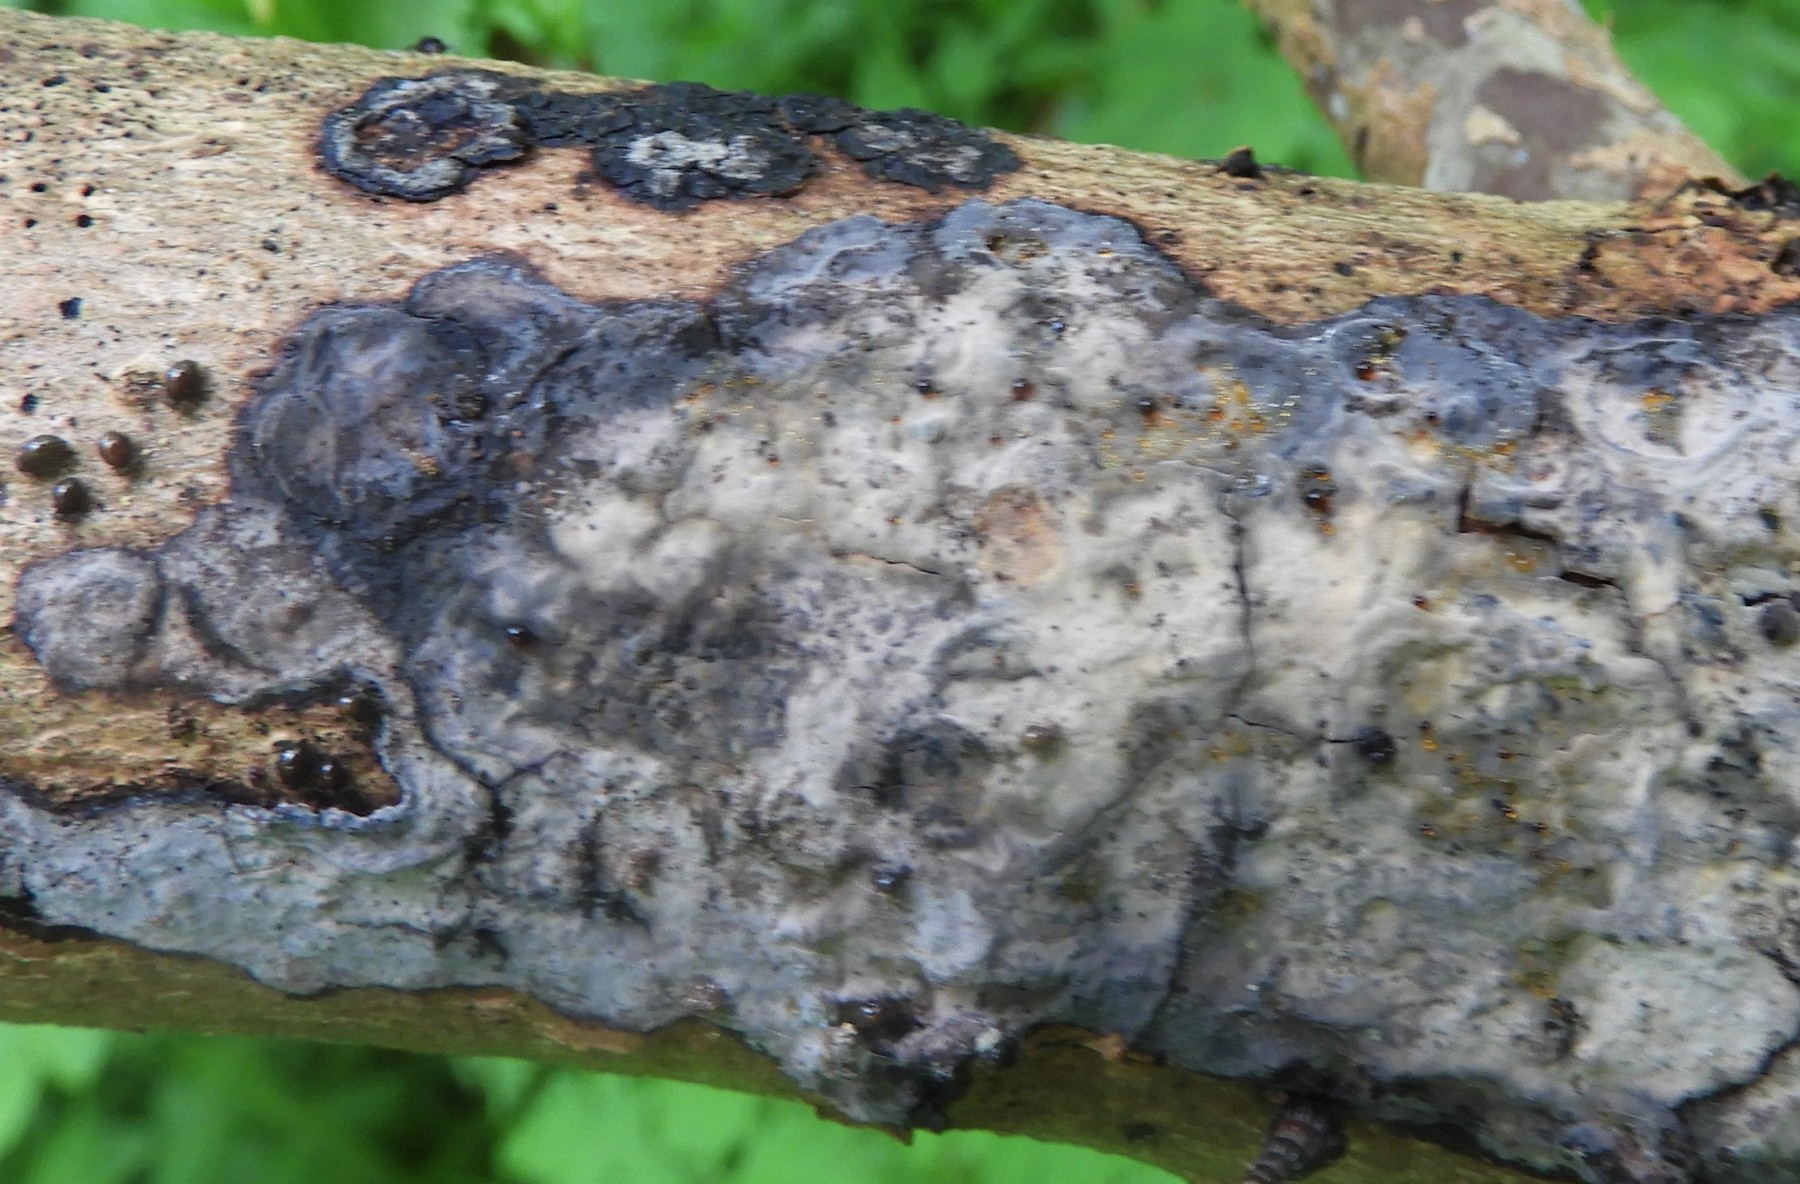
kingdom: Fungi
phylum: Basidiomycota
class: Agaricomycetes
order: Russulales
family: Peniophoraceae
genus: Peniophora
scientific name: Peniophora limitata
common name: mørkrandet voksskind
